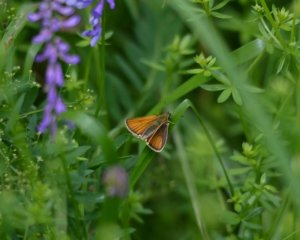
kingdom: Animalia
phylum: Arthropoda
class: Insecta
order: Lepidoptera
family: Hesperiidae
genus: Thymelicus
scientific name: Thymelicus lineola
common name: European Skipper
